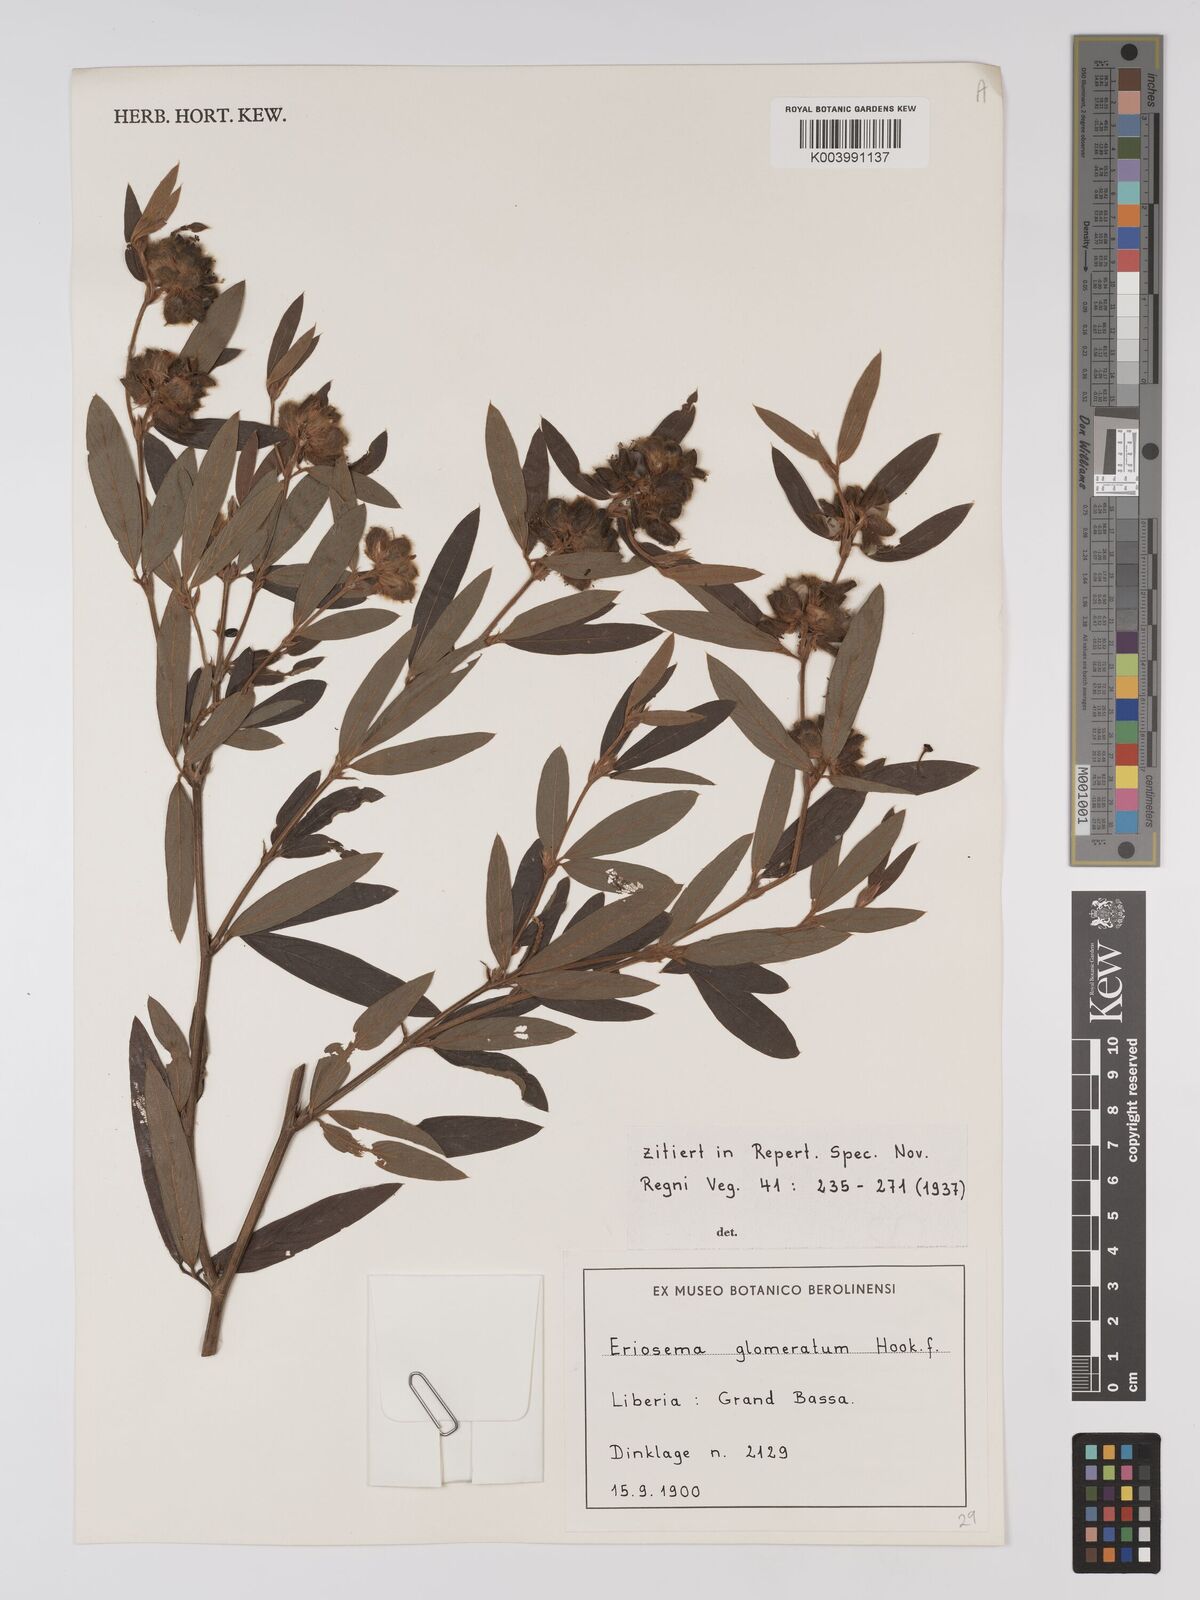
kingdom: Plantae
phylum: Tracheophyta
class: Magnoliopsida
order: Fabales
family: Fabaceae
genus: Eriosema
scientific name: Eriosema glomeratum
